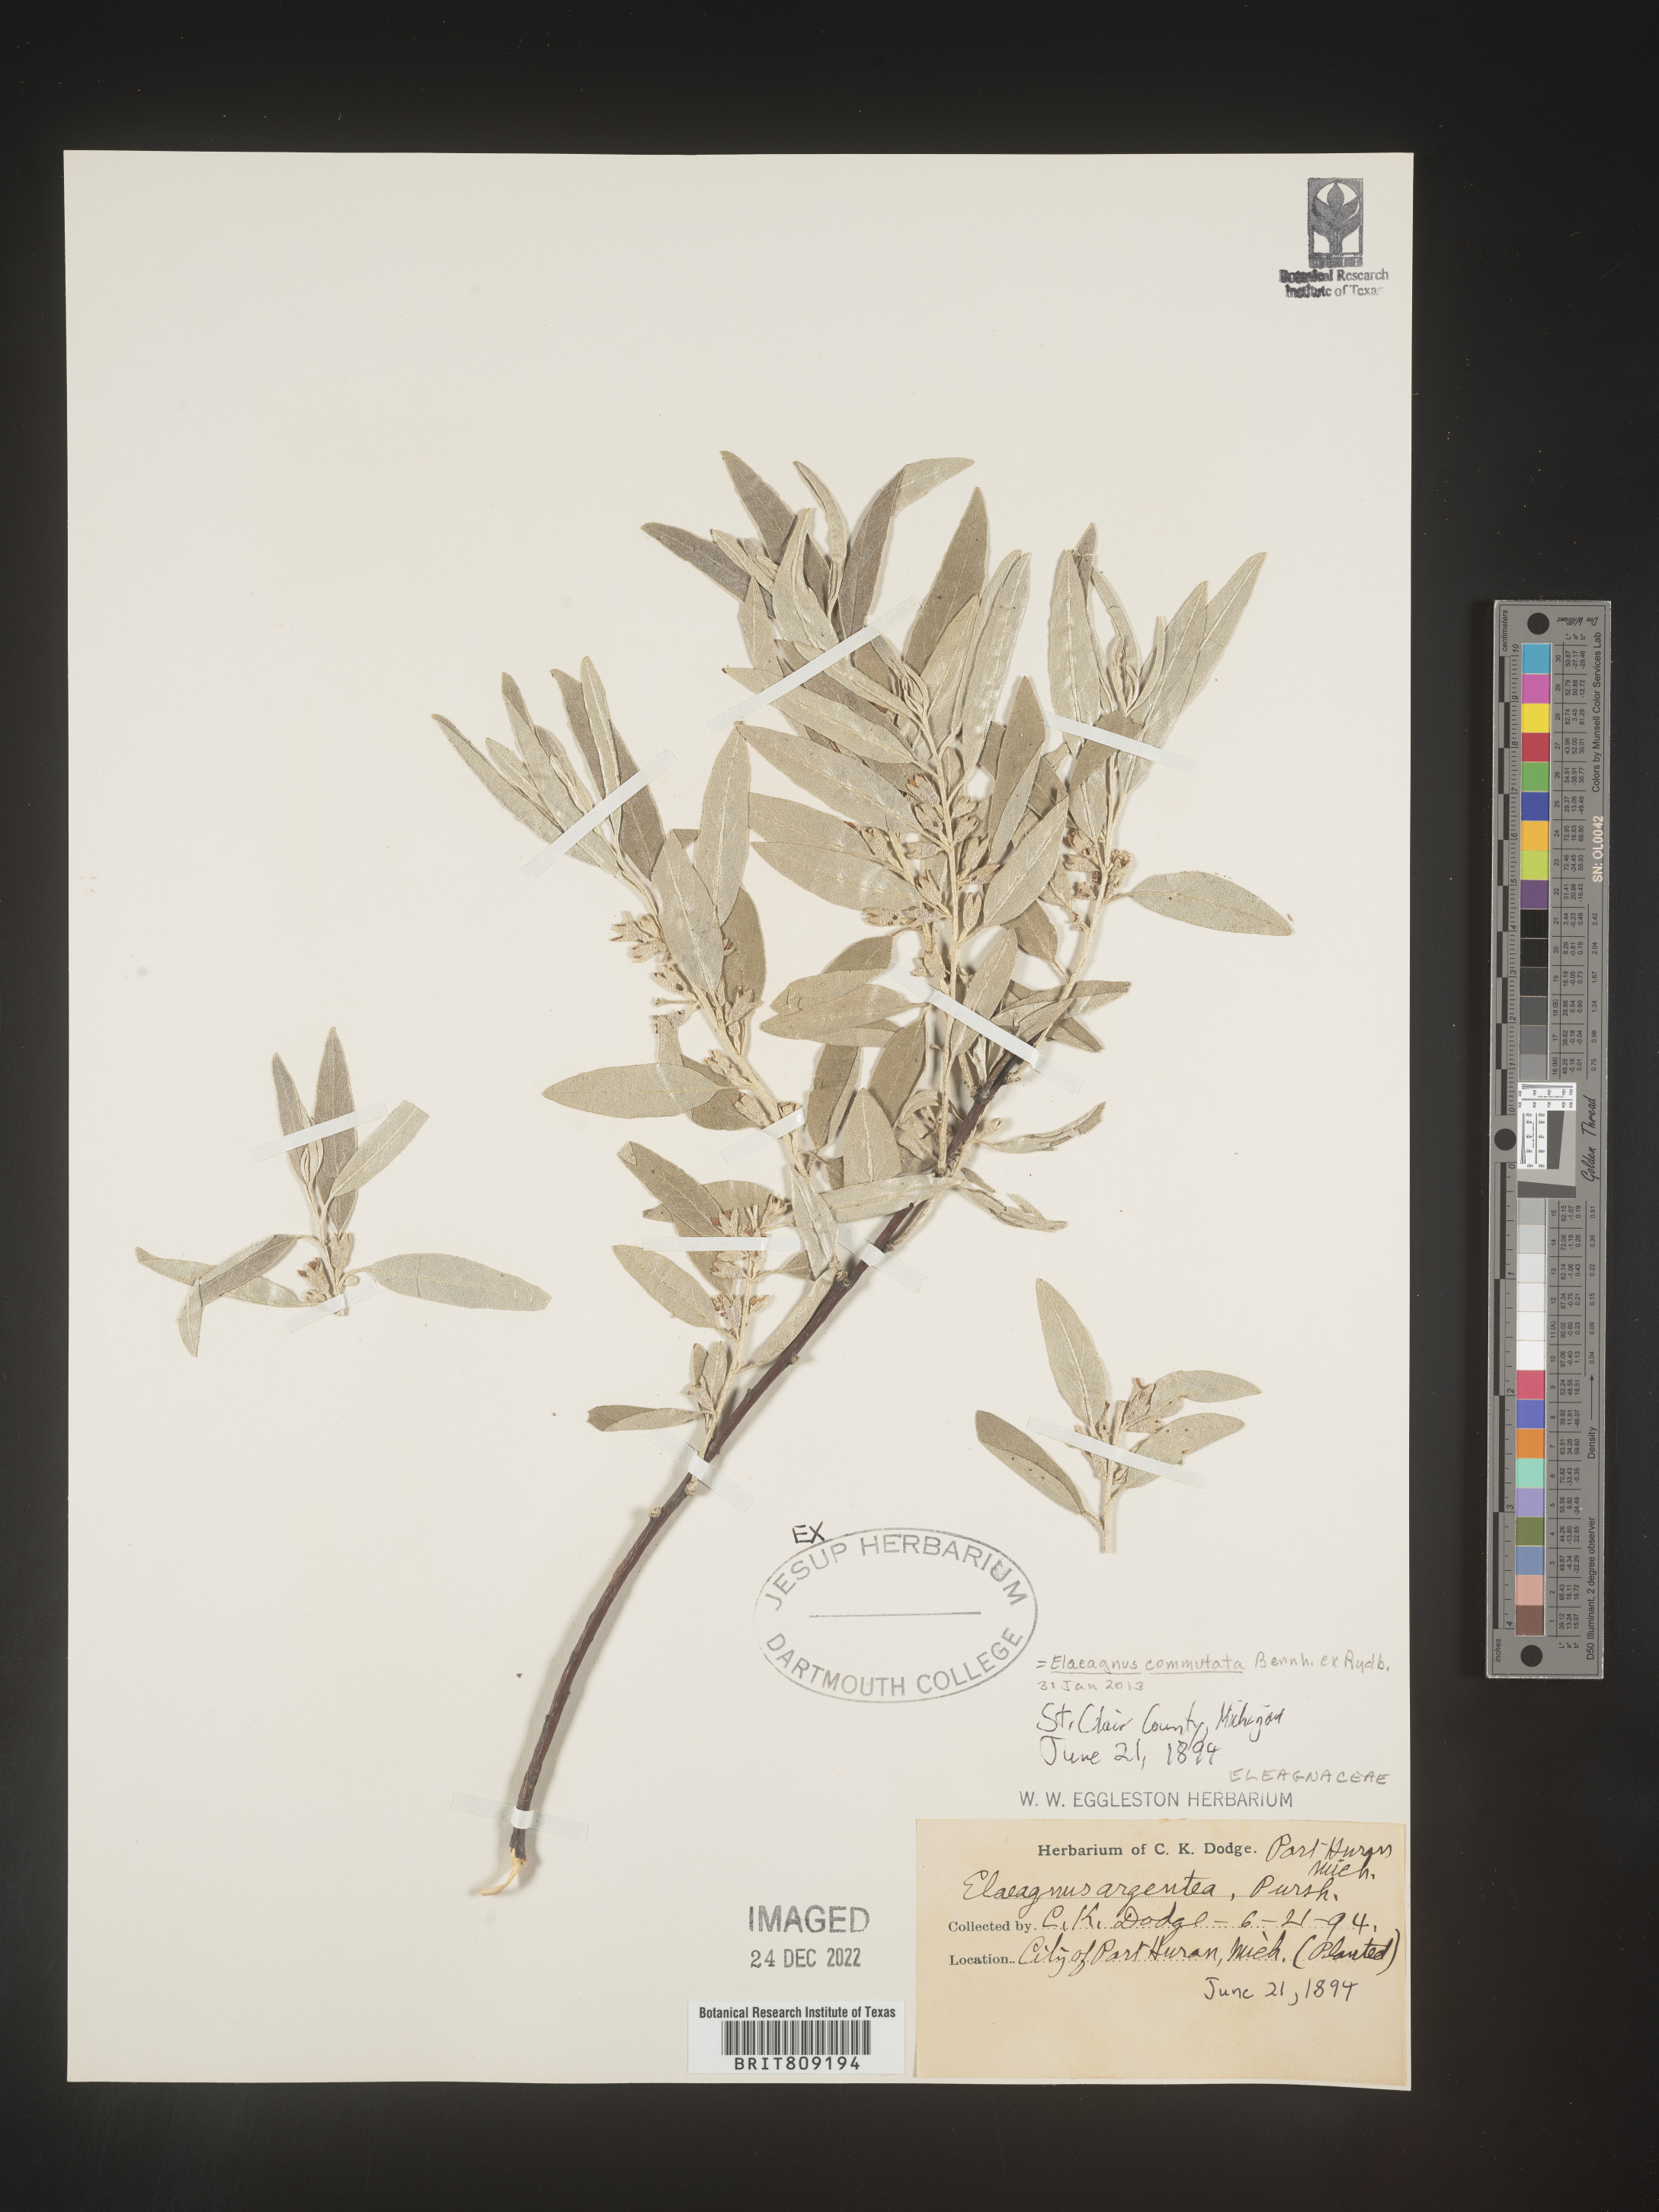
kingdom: Plantae
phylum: Tracheophyta
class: Magnoliopsida
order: Rosales
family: Elaeagnaceae
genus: Elaeagnus
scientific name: Elaeagnus
